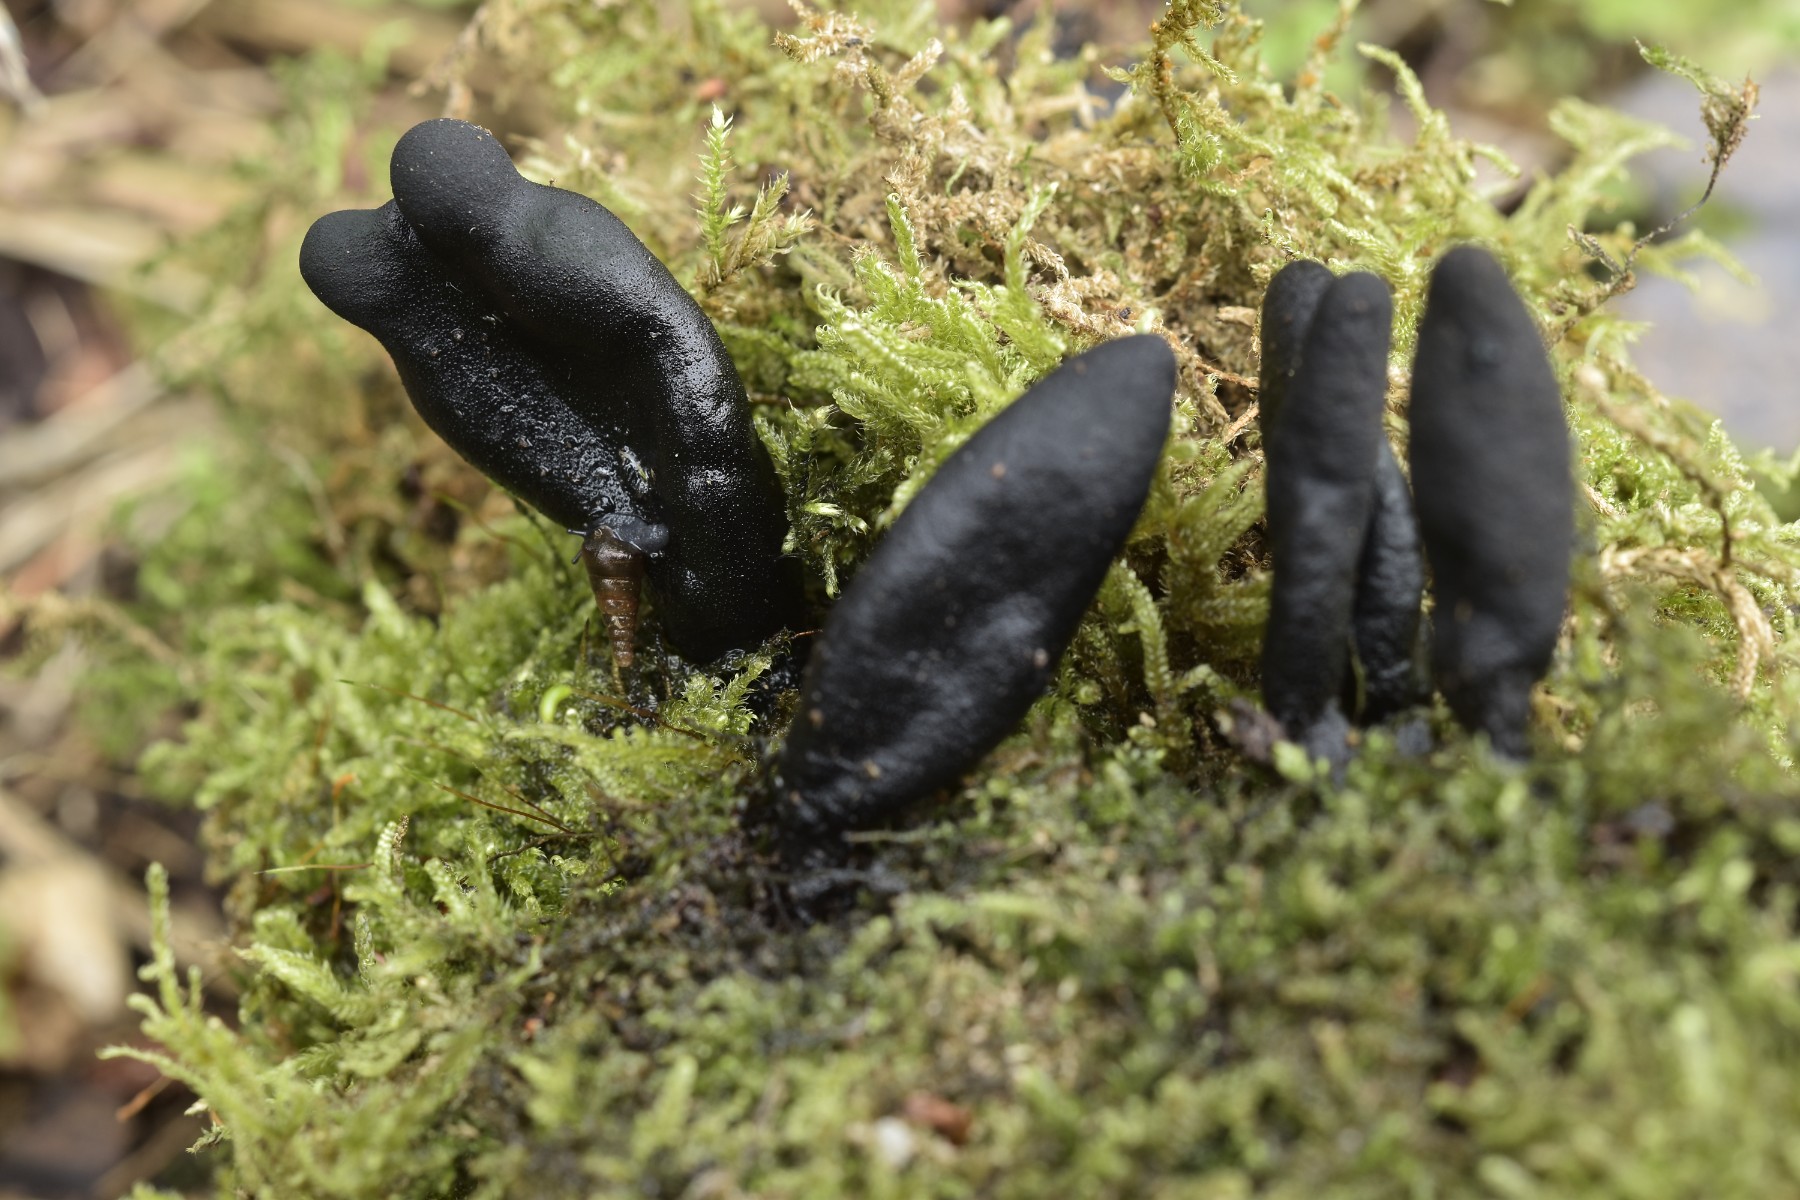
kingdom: Fungi
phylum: Ascomycota
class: Sordariomycetes
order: Xylariales
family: Xylariaceae
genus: Xylaria
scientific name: Xylaria longipes
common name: slank stødsvamp
